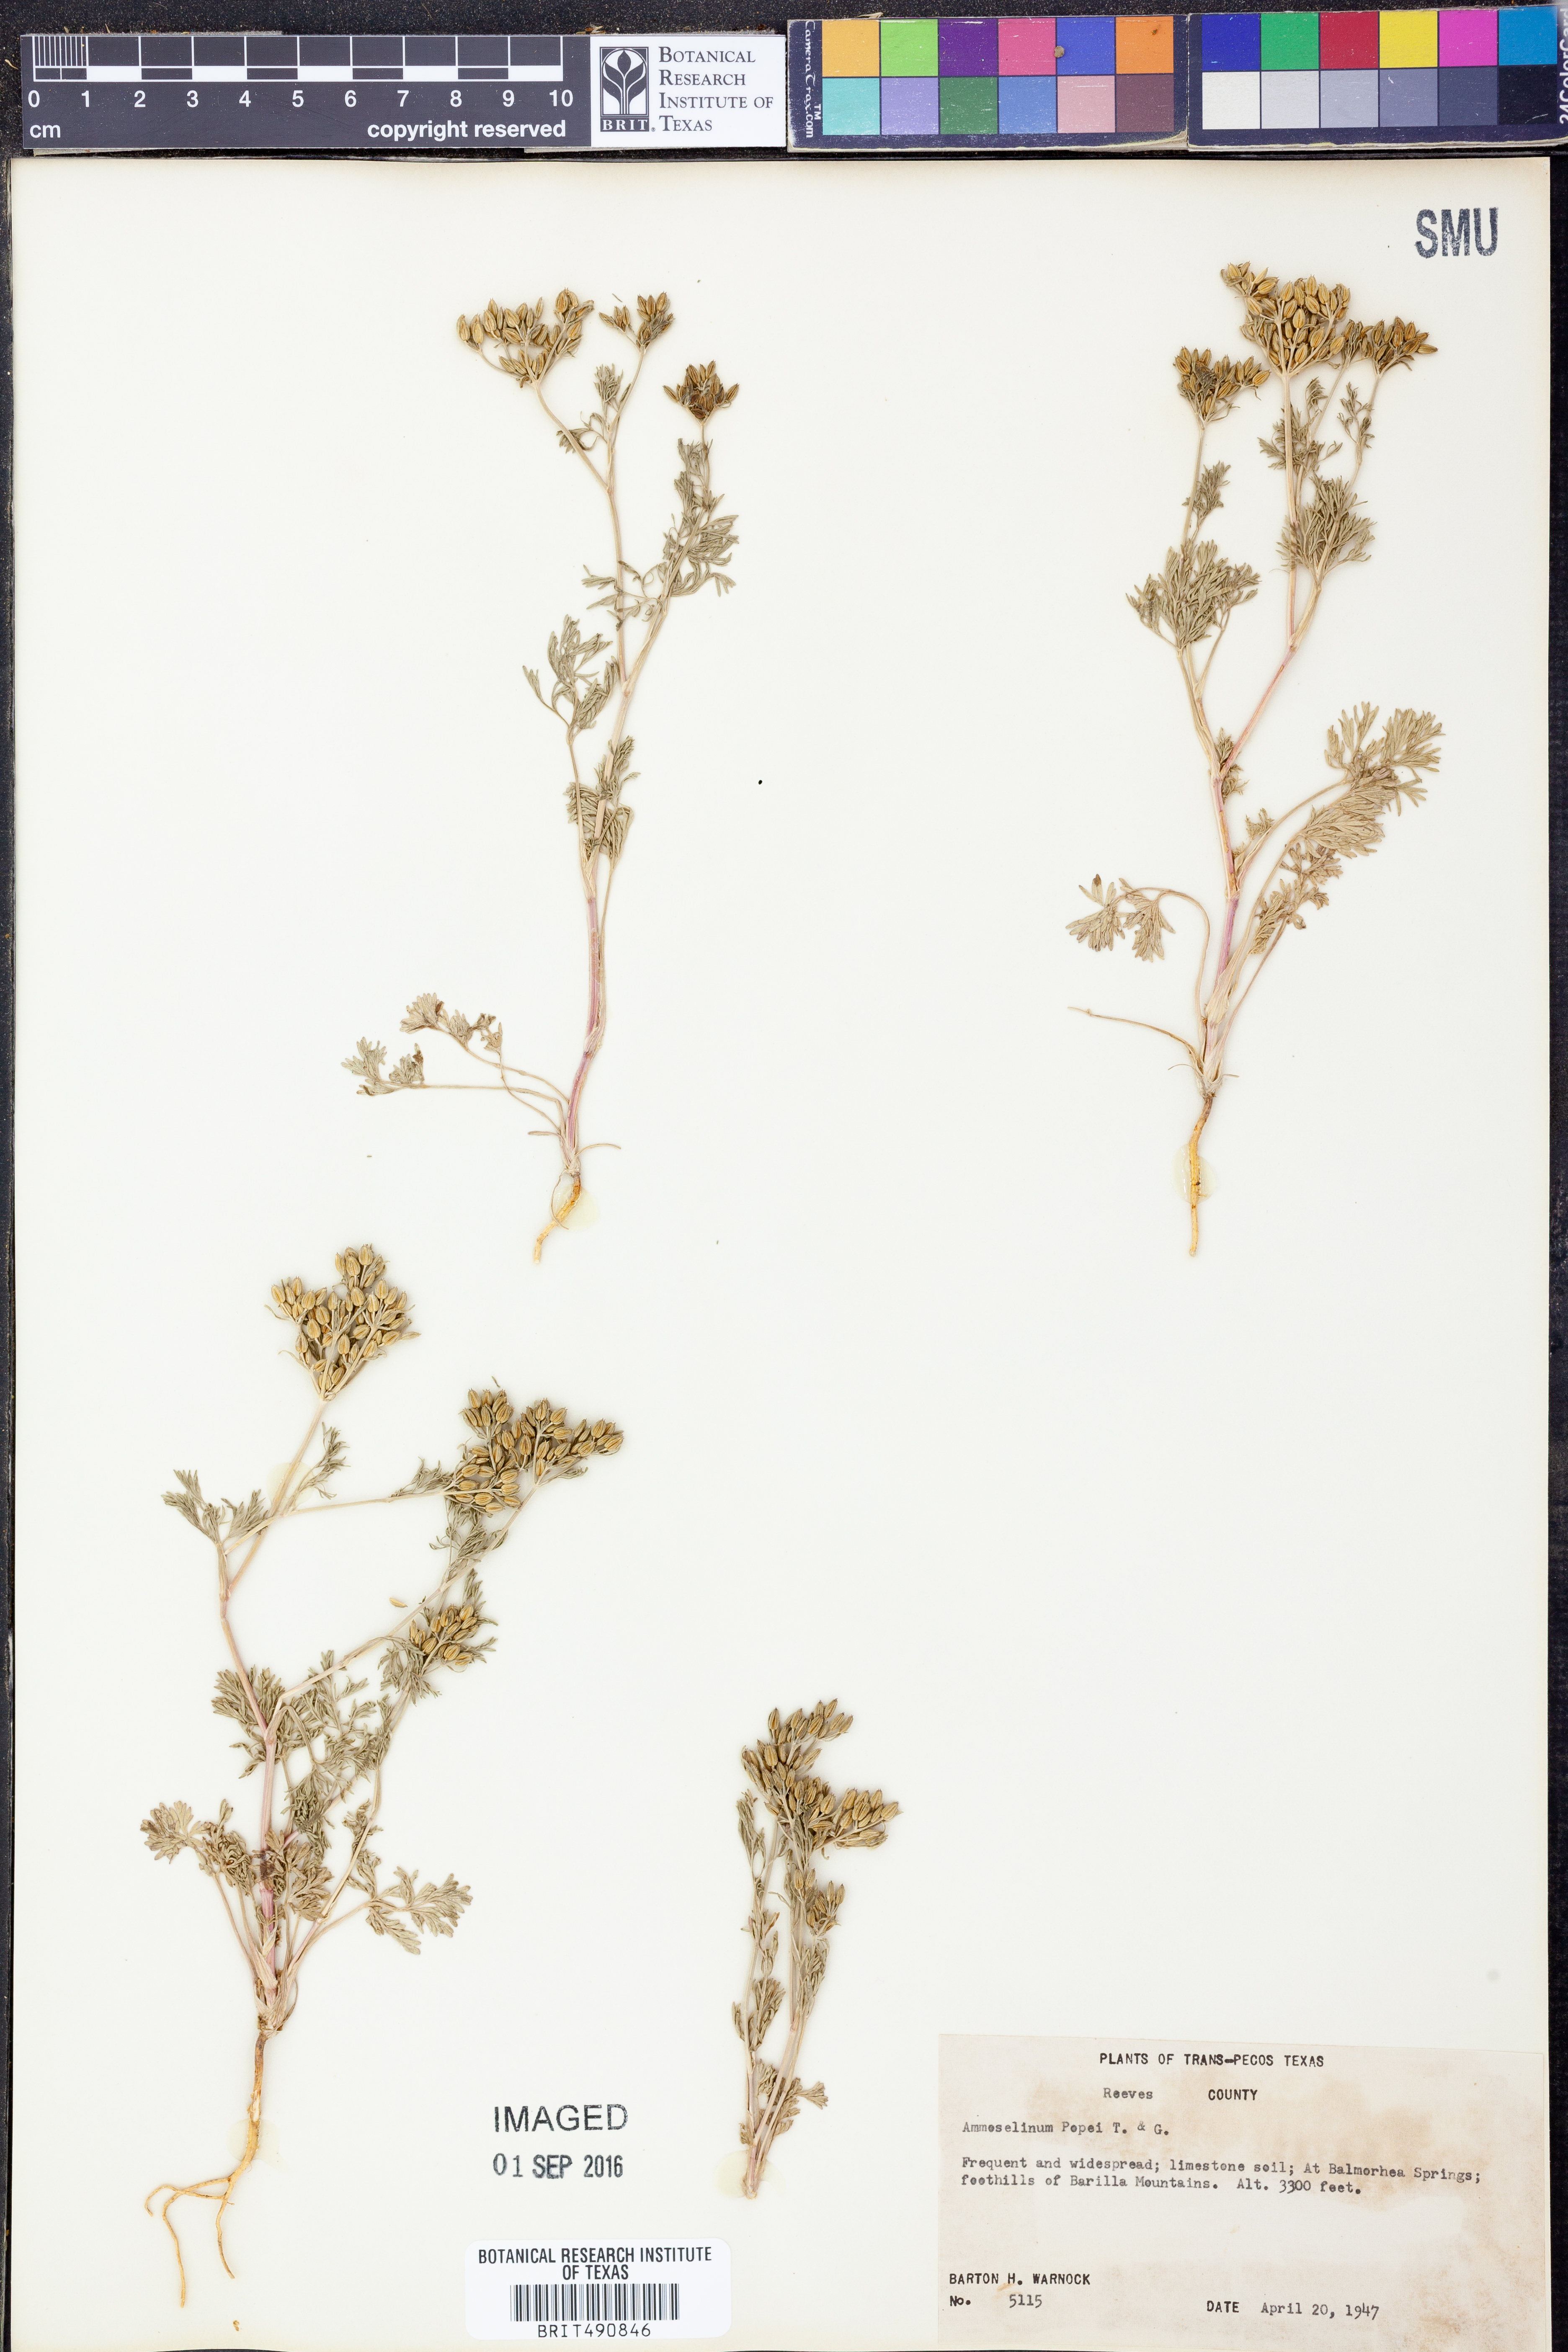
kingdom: Plantae
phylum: Tracheophyta
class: Magnoliopsida
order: Apiales
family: Apiaceae
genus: Ammoselinum
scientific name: Ammoselinum popei
